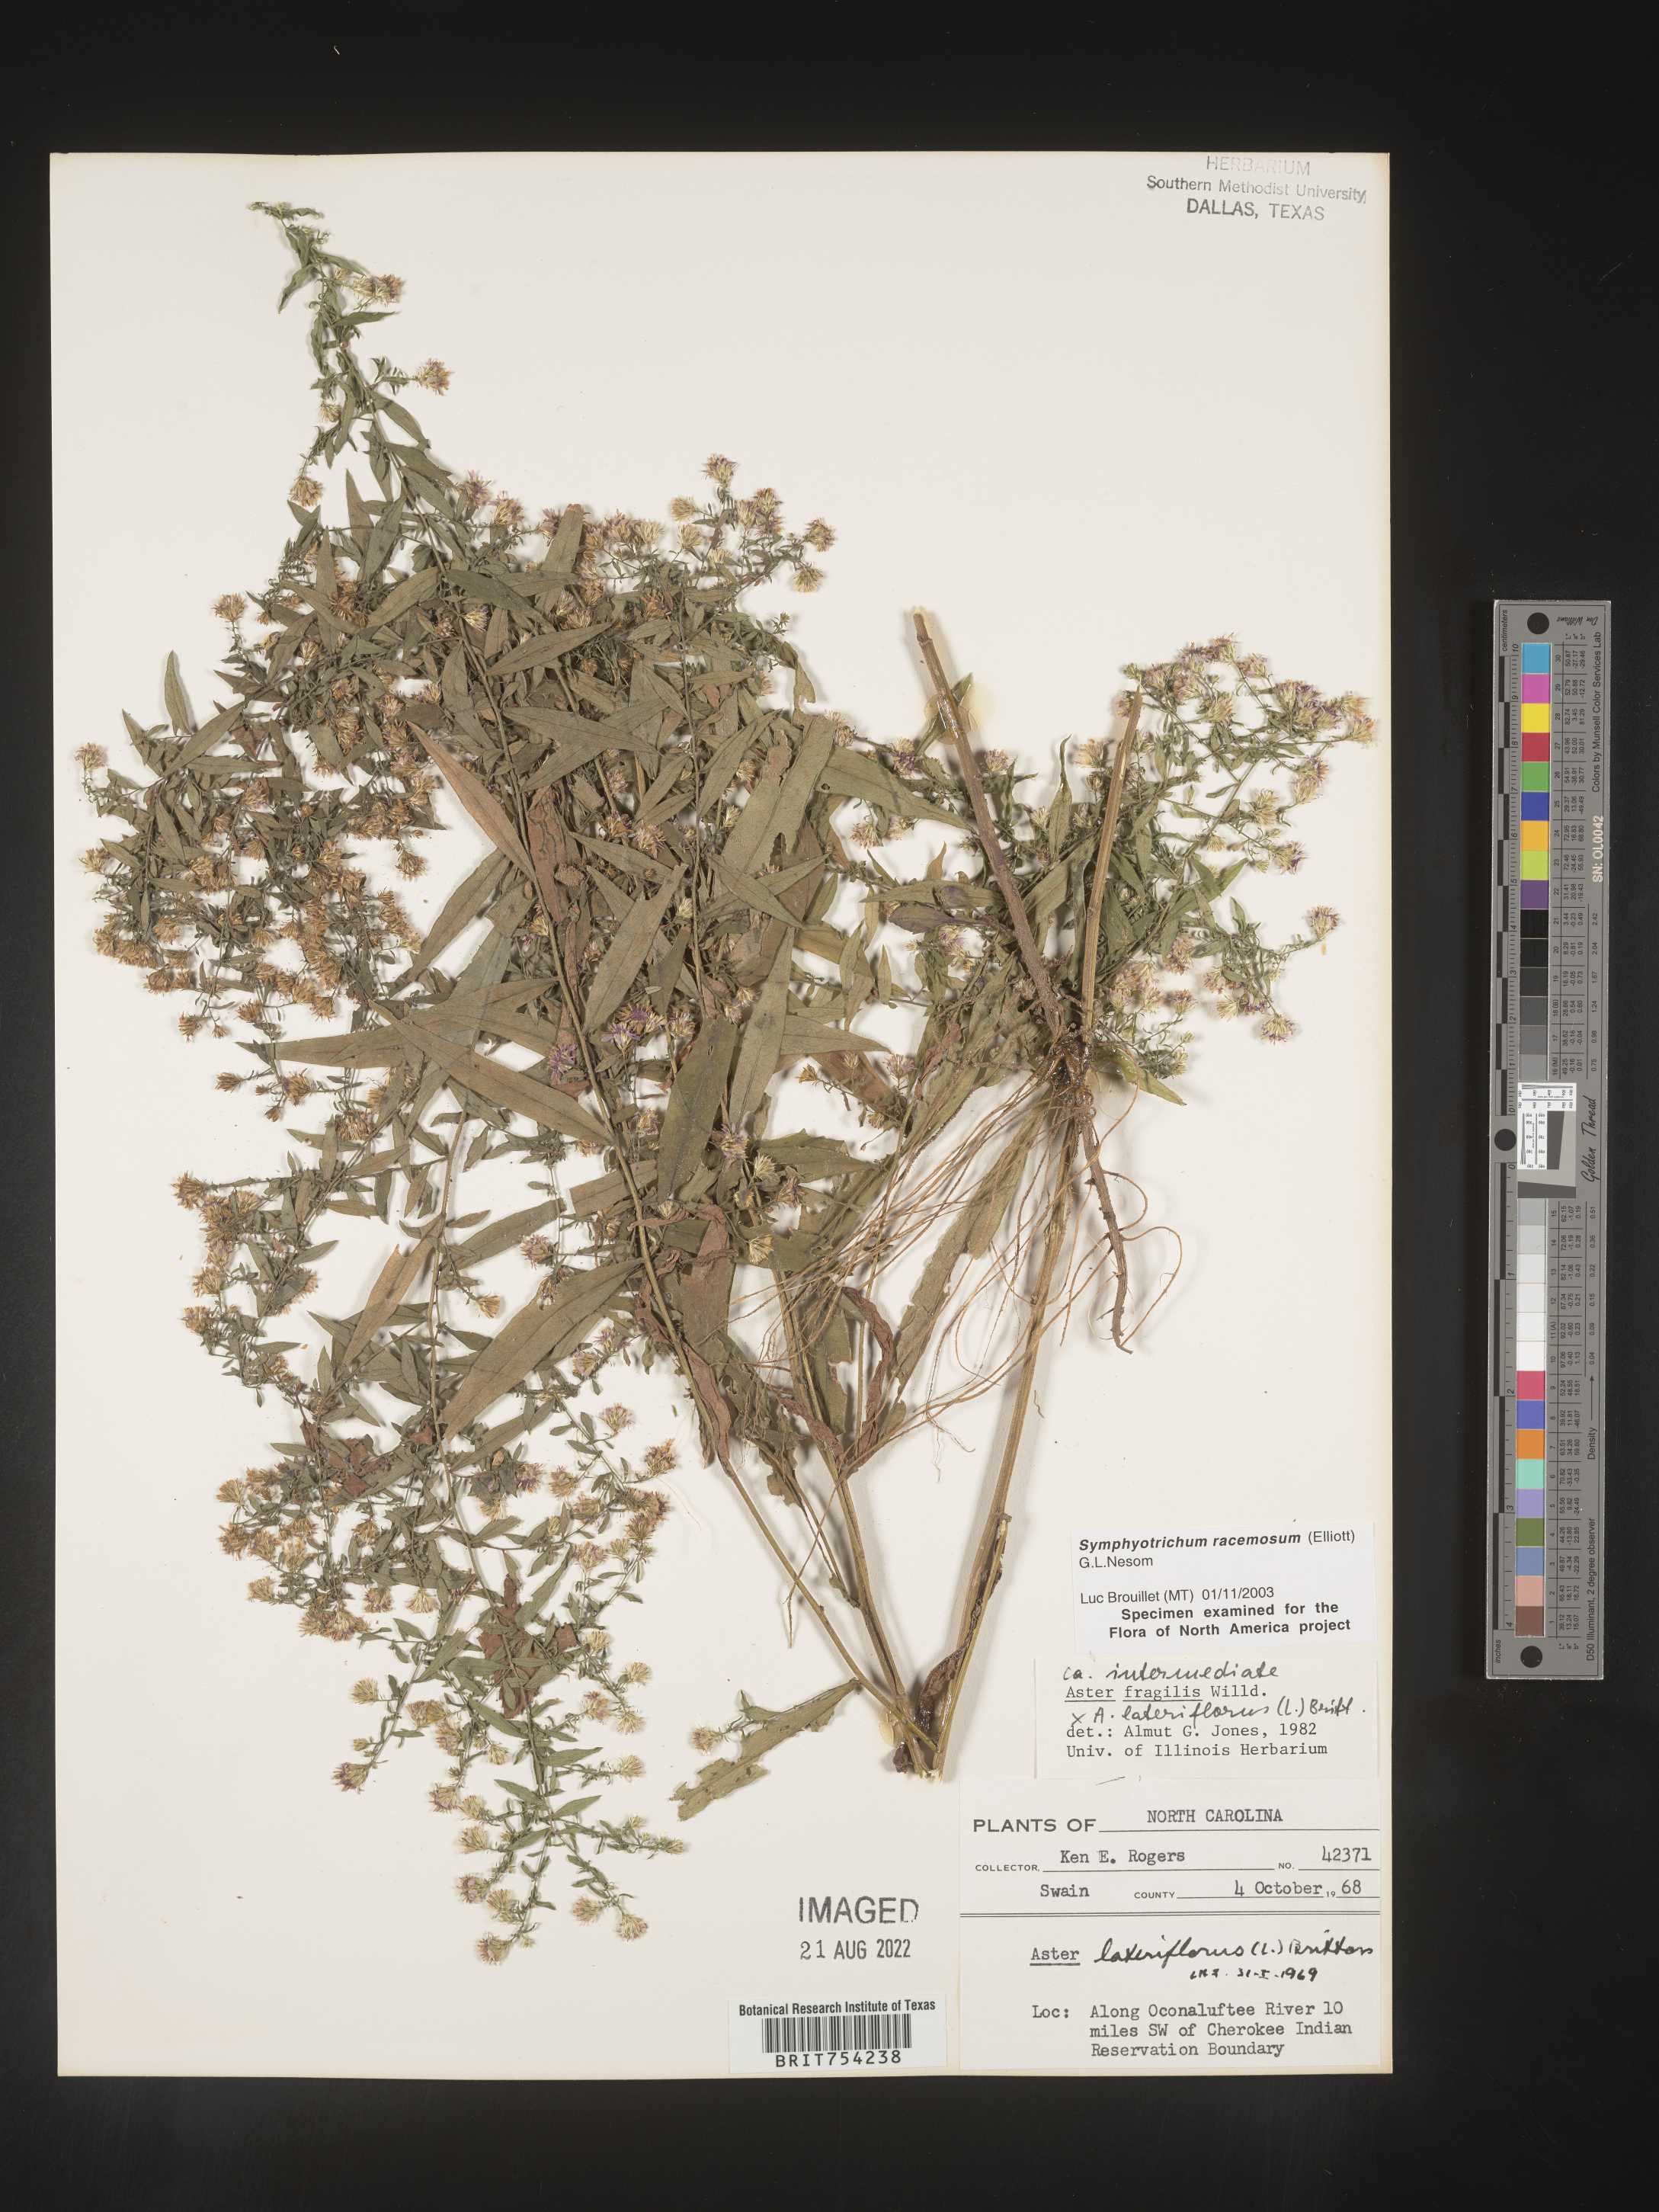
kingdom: Plantae
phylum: Tracheophyta
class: Magnoliopsida
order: Asterales
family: Asteraceae
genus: Symphyotrichum
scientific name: Symphyotrichum racemosum
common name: Small white aster
